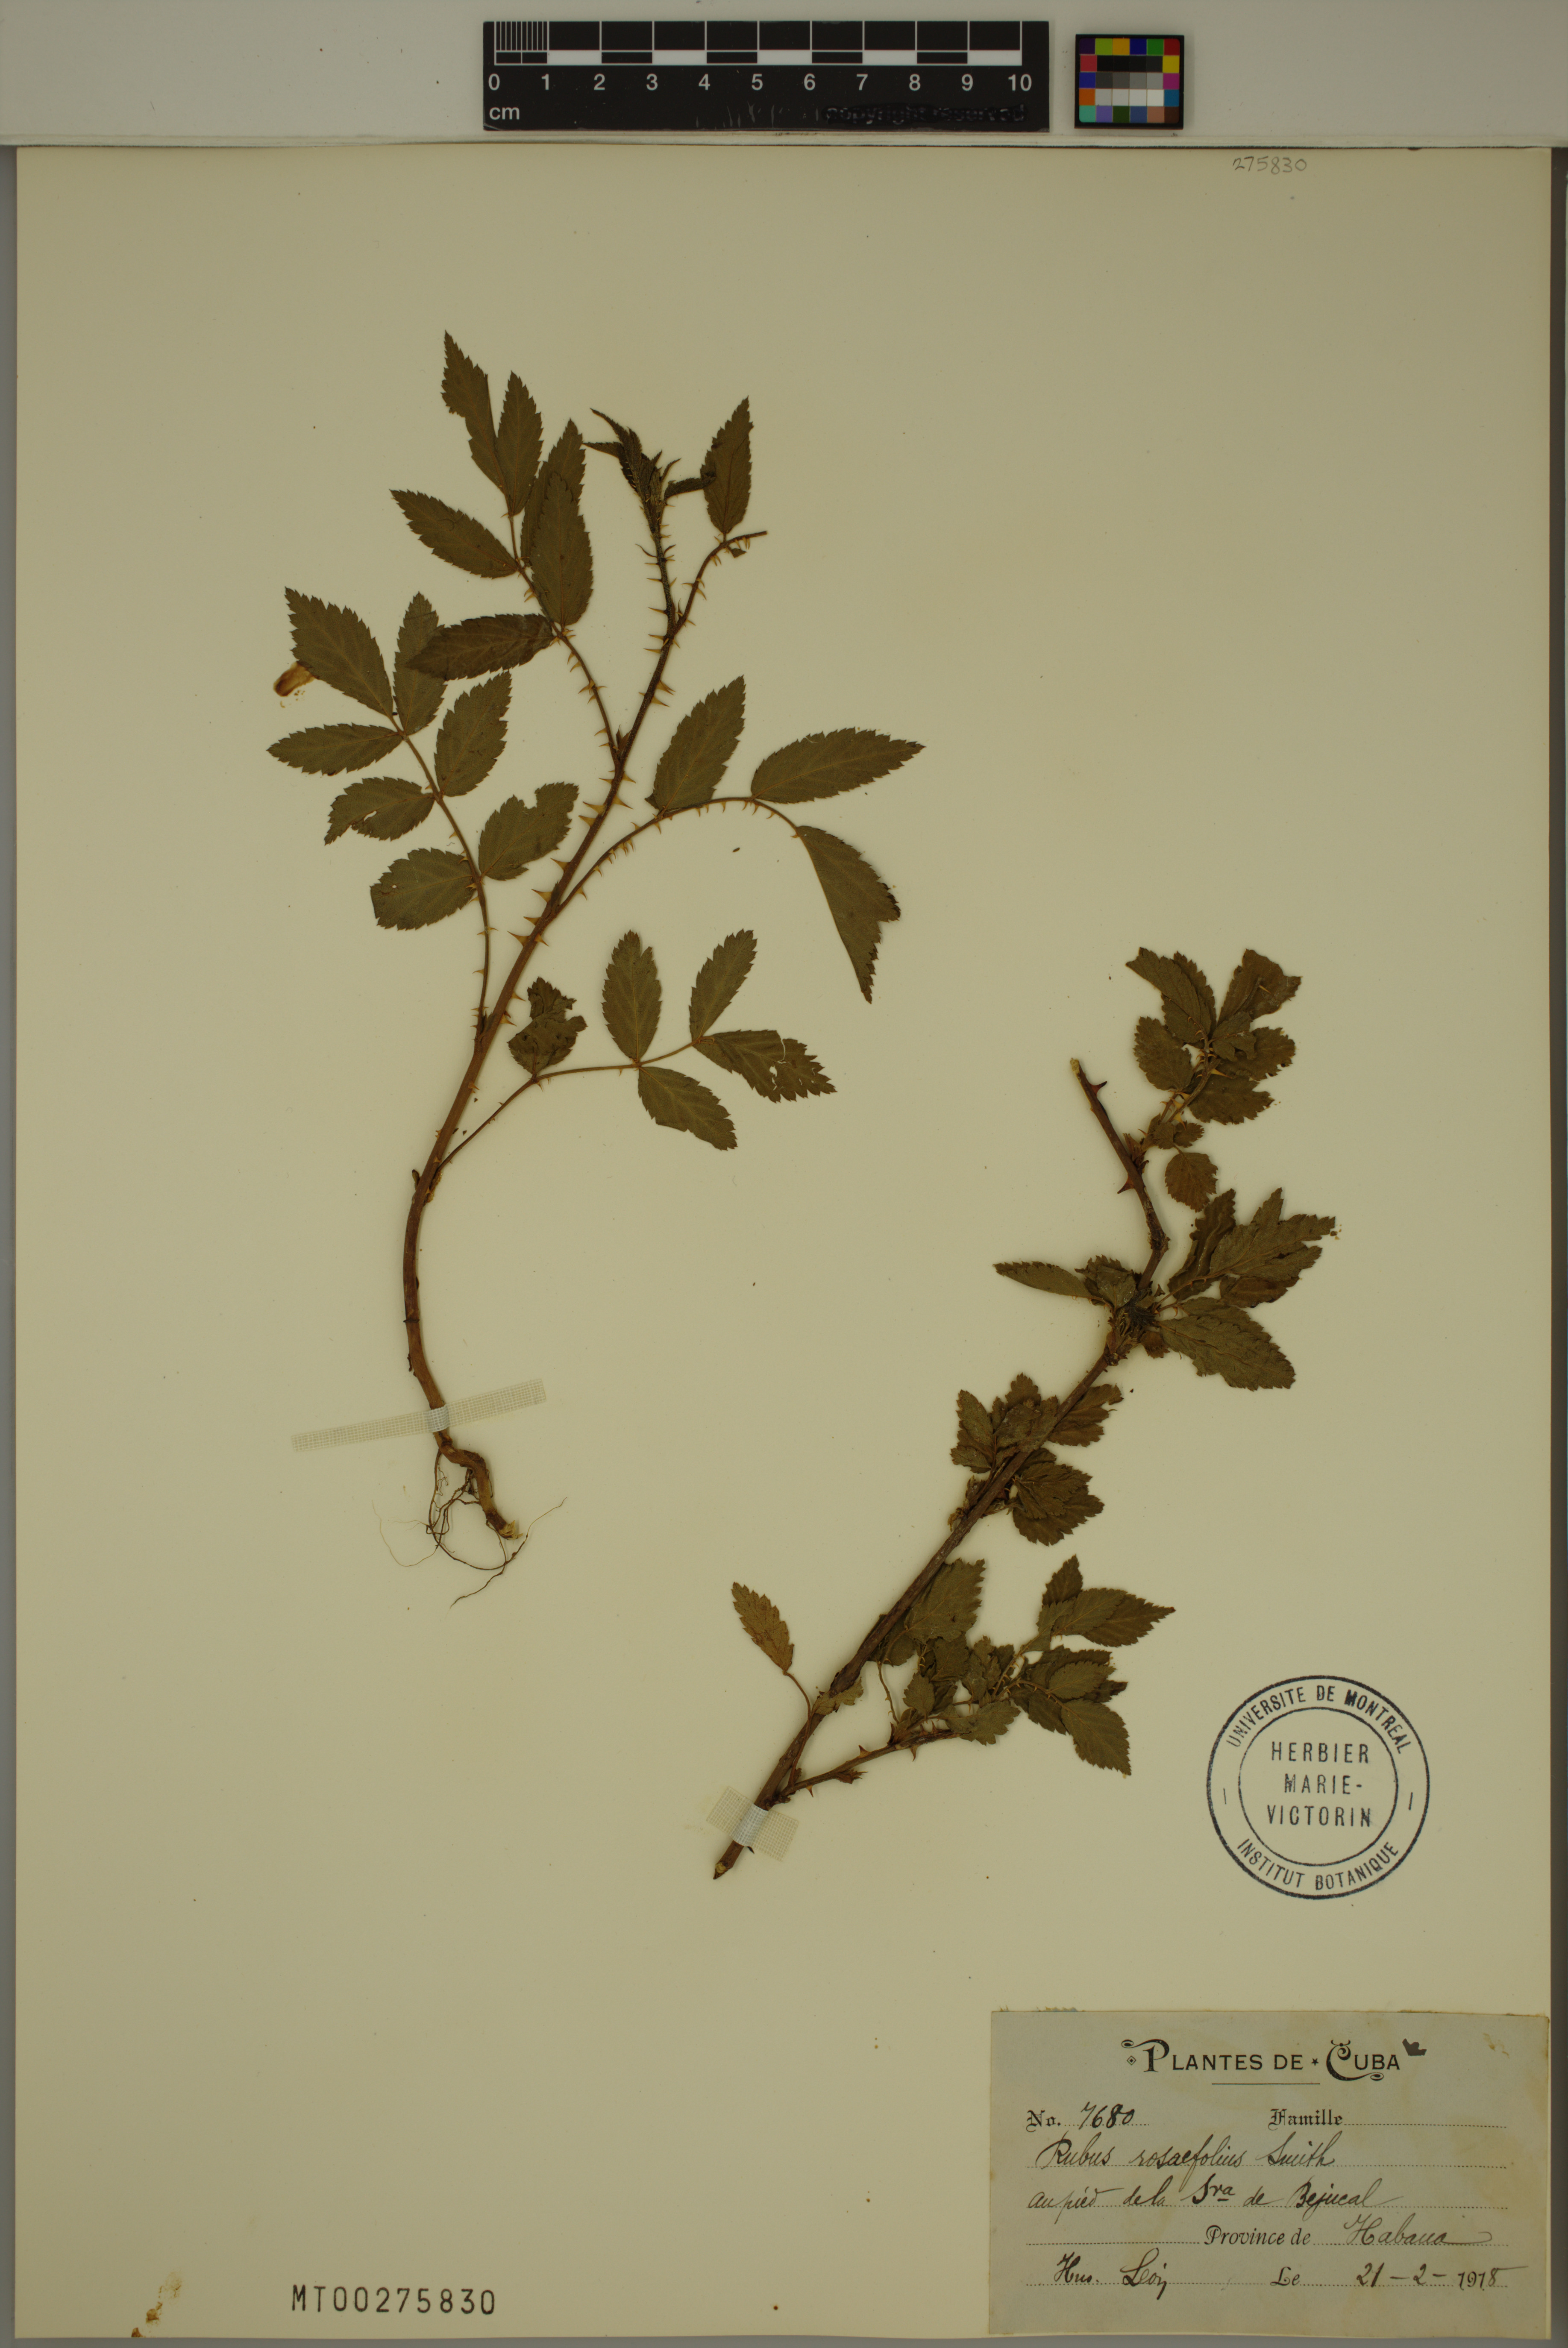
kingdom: Plantae
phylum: Tracheophyta
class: Magnoliopsida
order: Rosales
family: Rosaceae
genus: Rubus
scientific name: Rubus rosifolius
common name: Roseleaf raspberry
